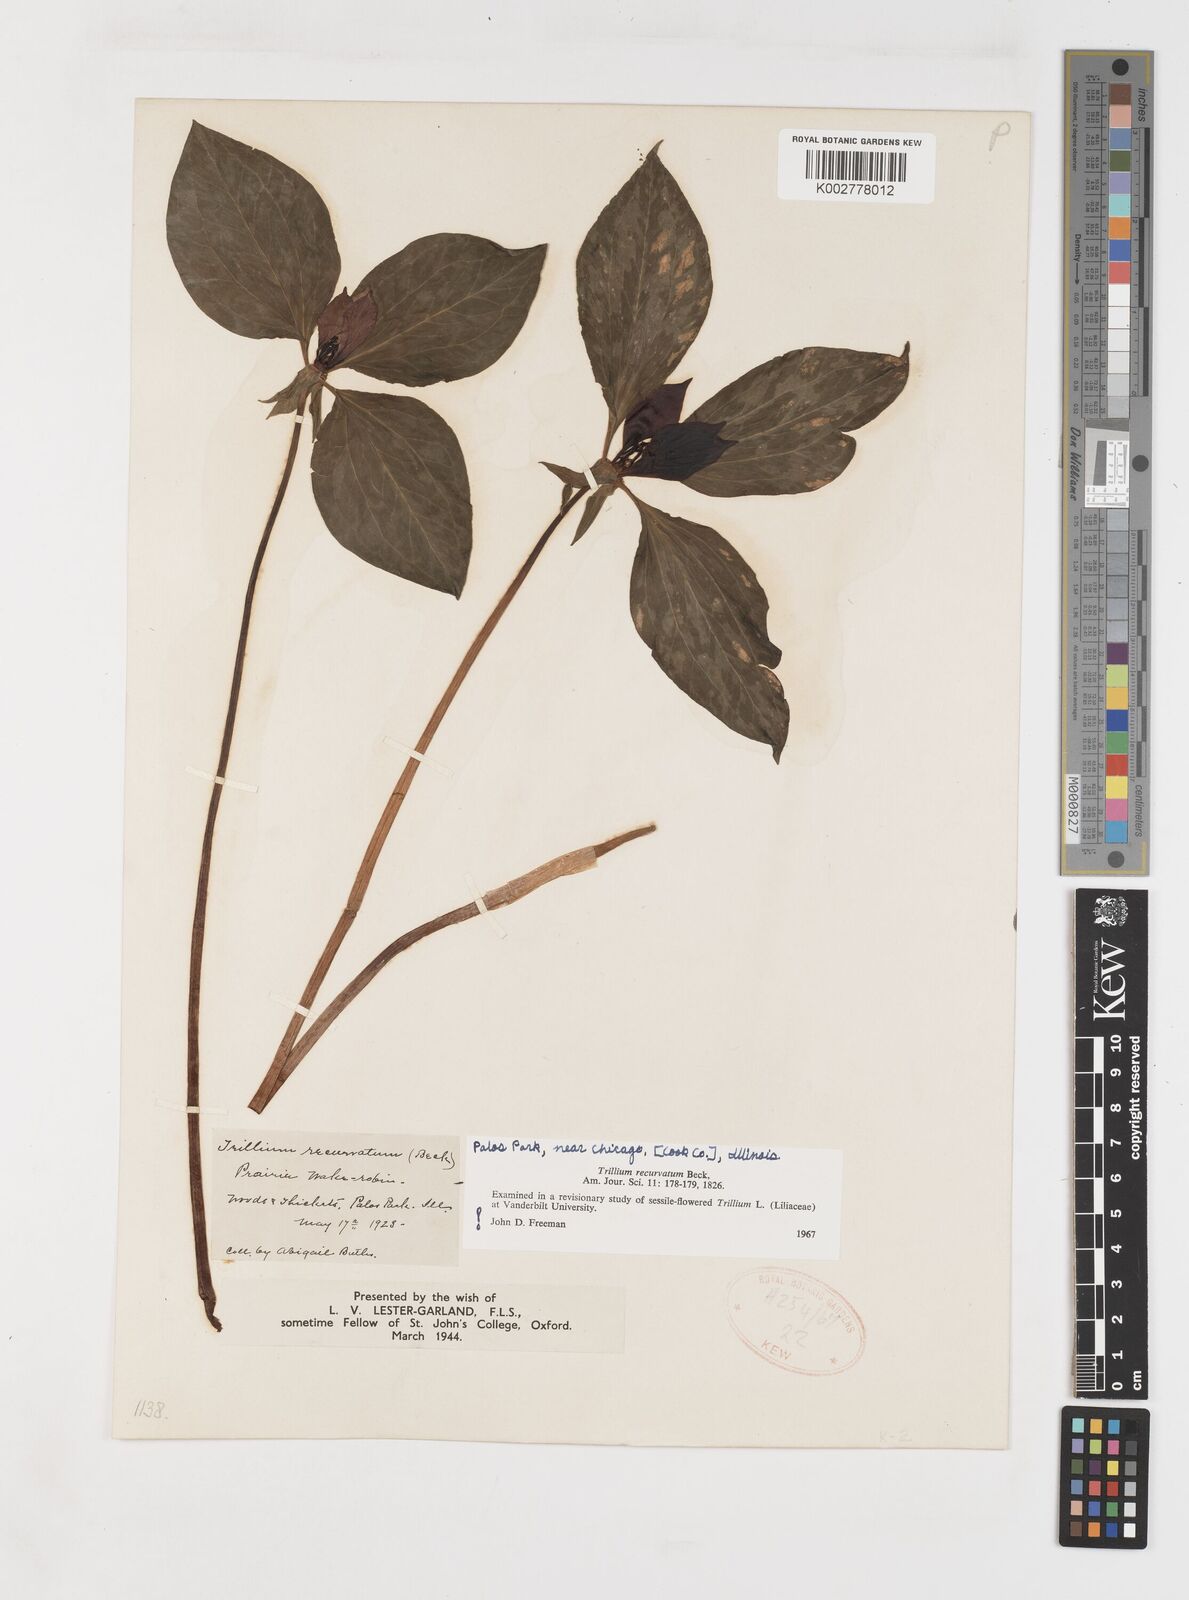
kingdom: Plantae
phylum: Tracheophyta
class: Liliopsida
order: Liliales
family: Melanthiaceae
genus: Trillium
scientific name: Trillium recurvatum
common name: Bloody butcher
